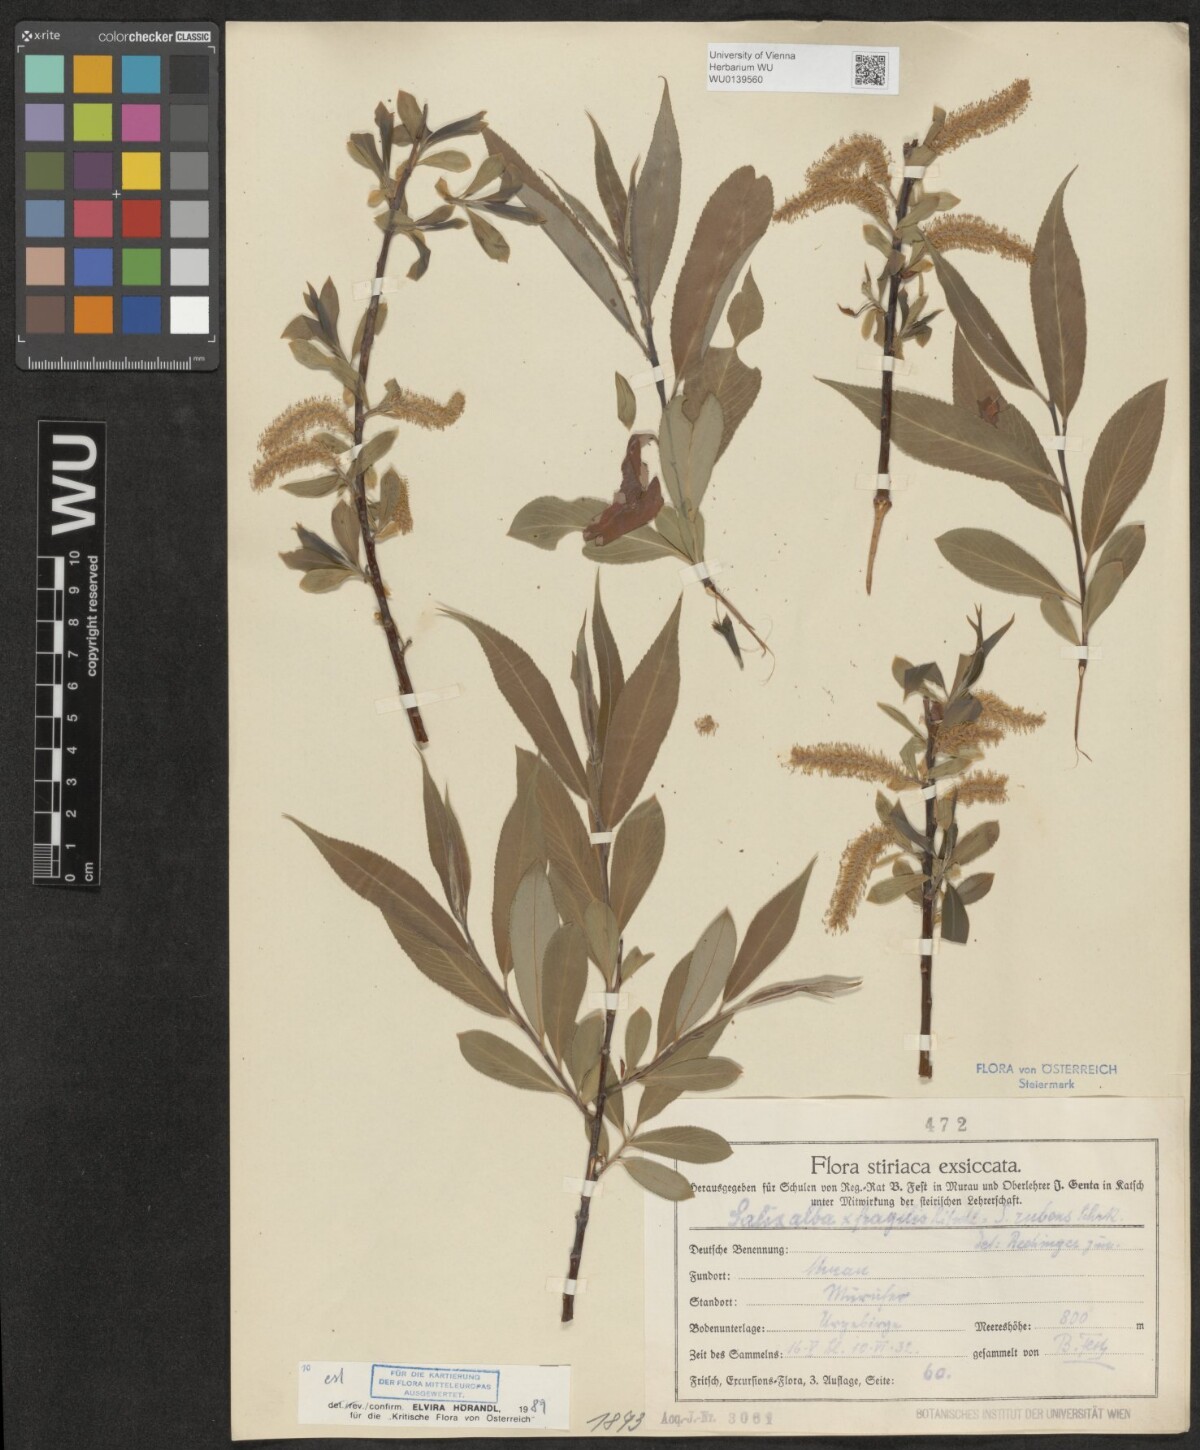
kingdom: Plantae
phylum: Tracheophyta
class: Magnoliopsida
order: Malpighiales
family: Salicaceae
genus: Salix
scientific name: Salix rubens
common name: Hybrid crack willow
